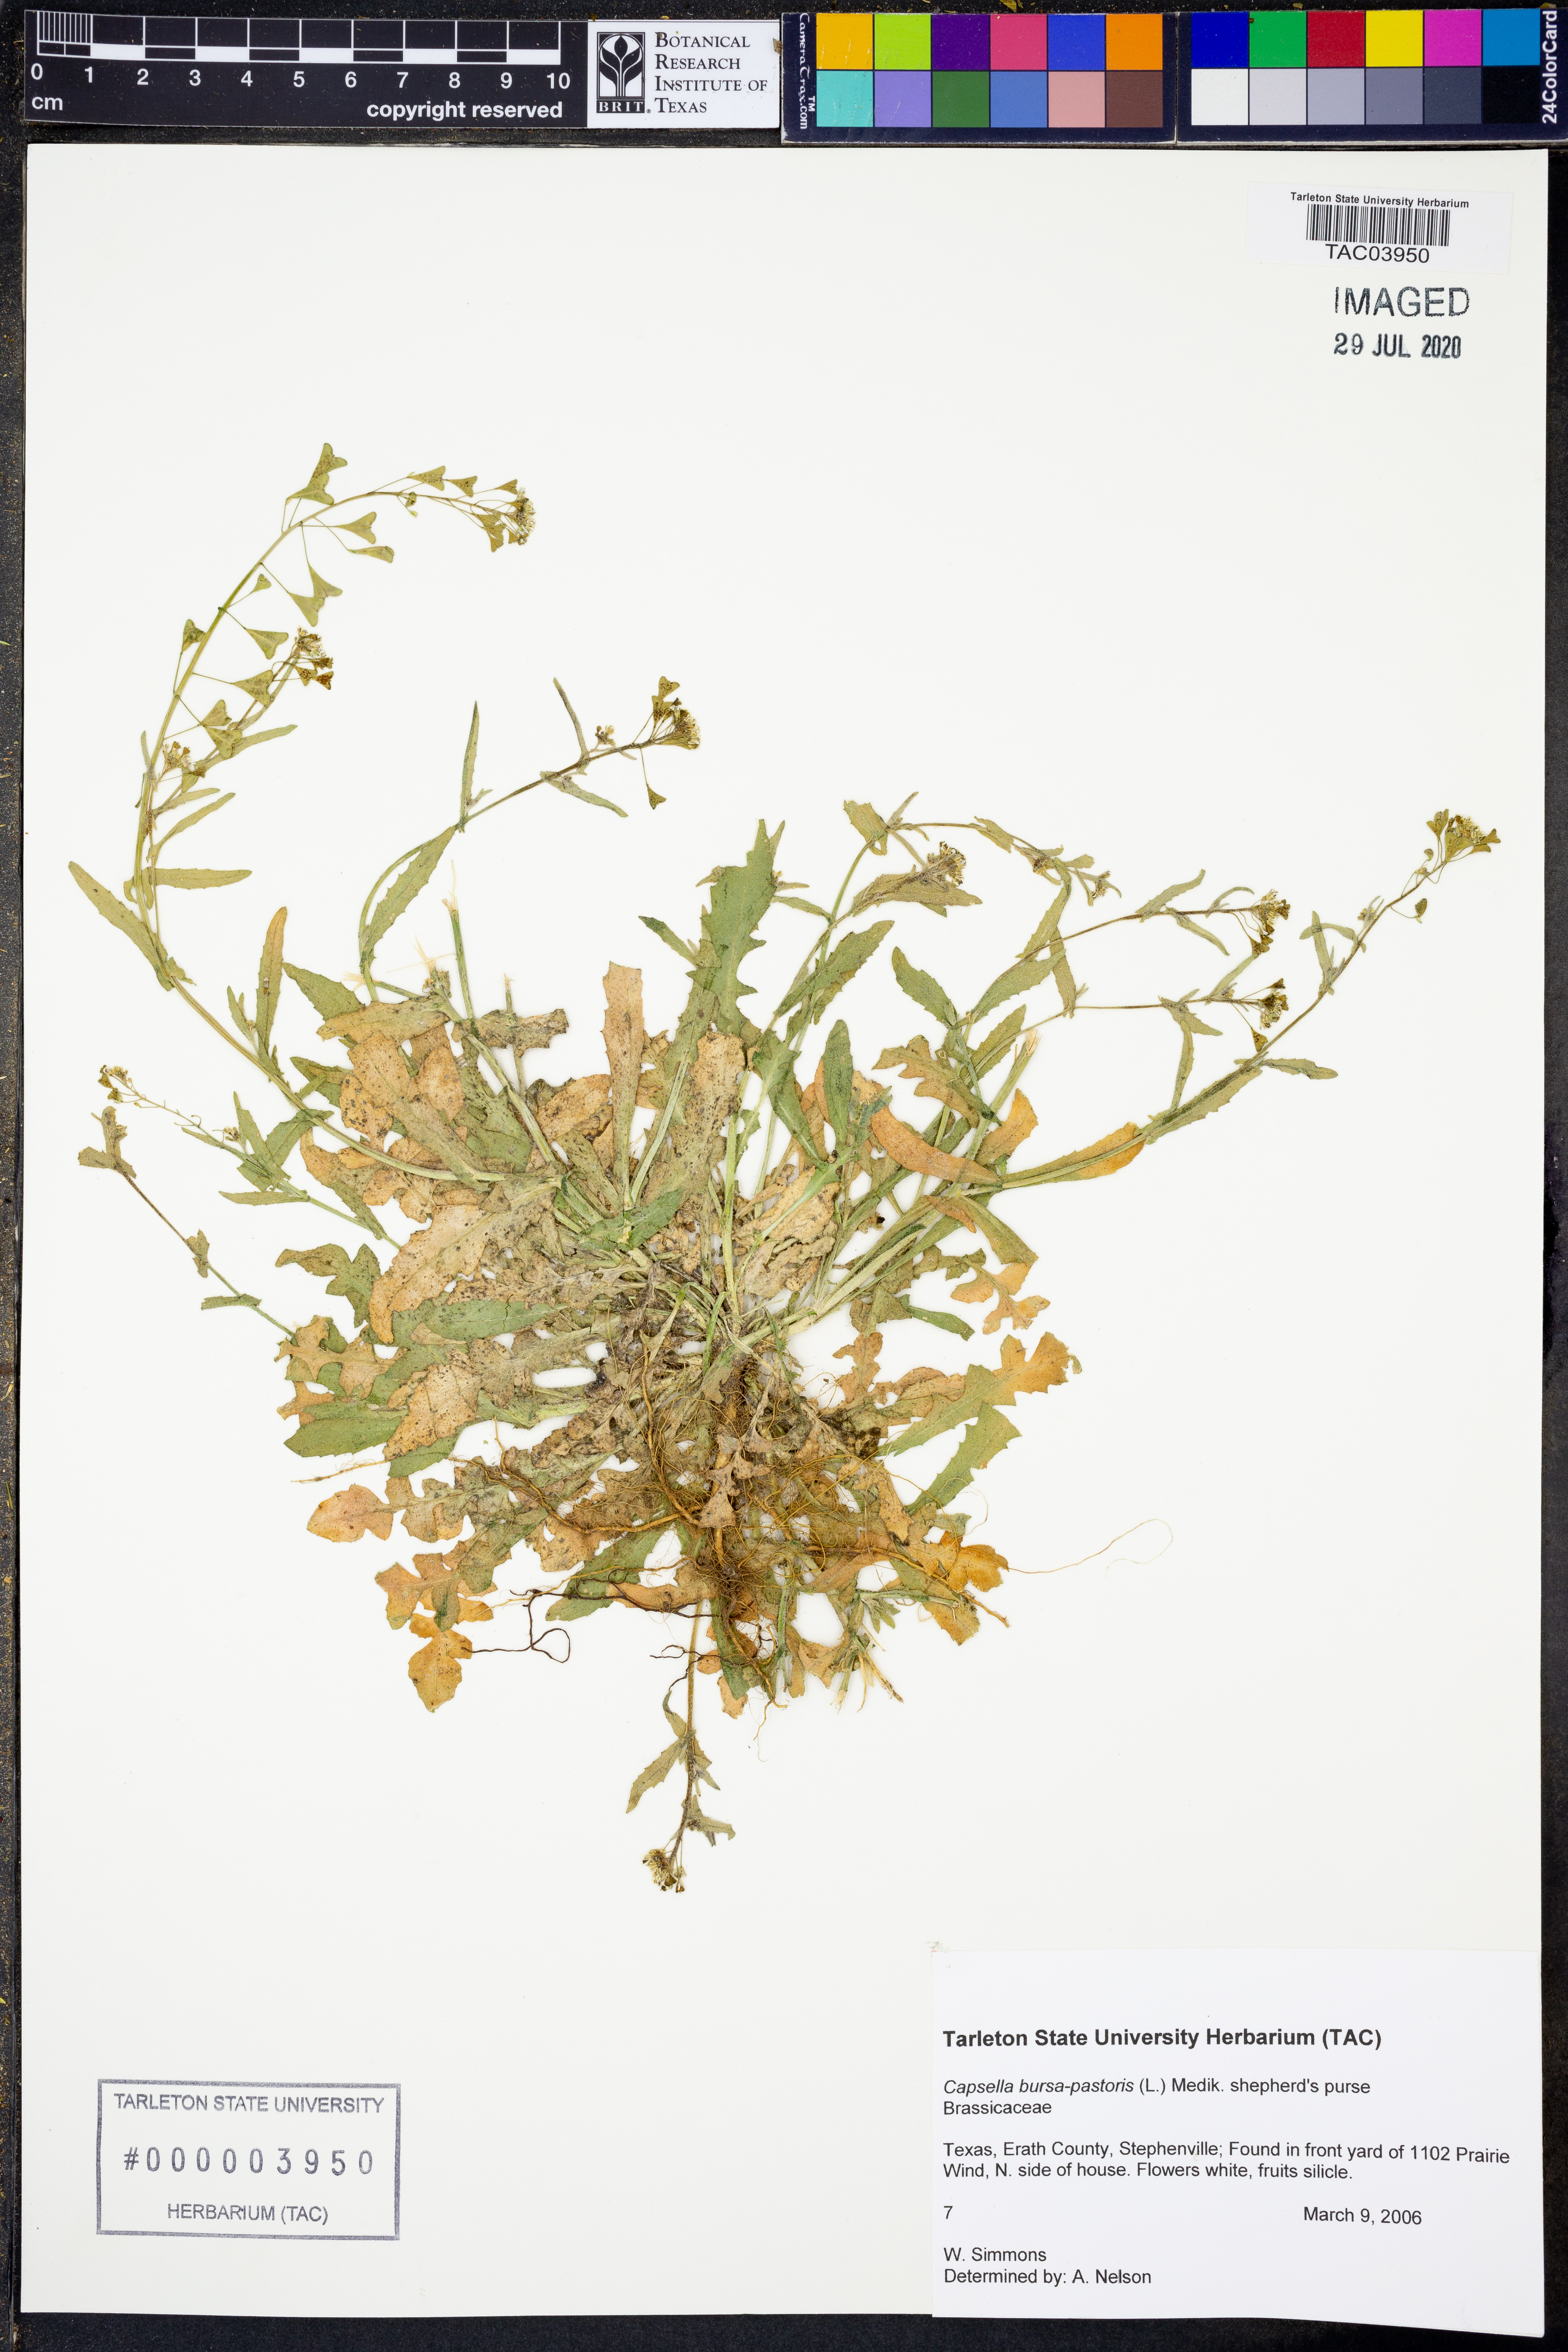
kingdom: Plantae
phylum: Tracheophyta
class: Magnoliopsida
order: Brassicales
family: Brassicaceae
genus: Capsella
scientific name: Capsella bursa-pastoris
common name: Shepherd's purse
